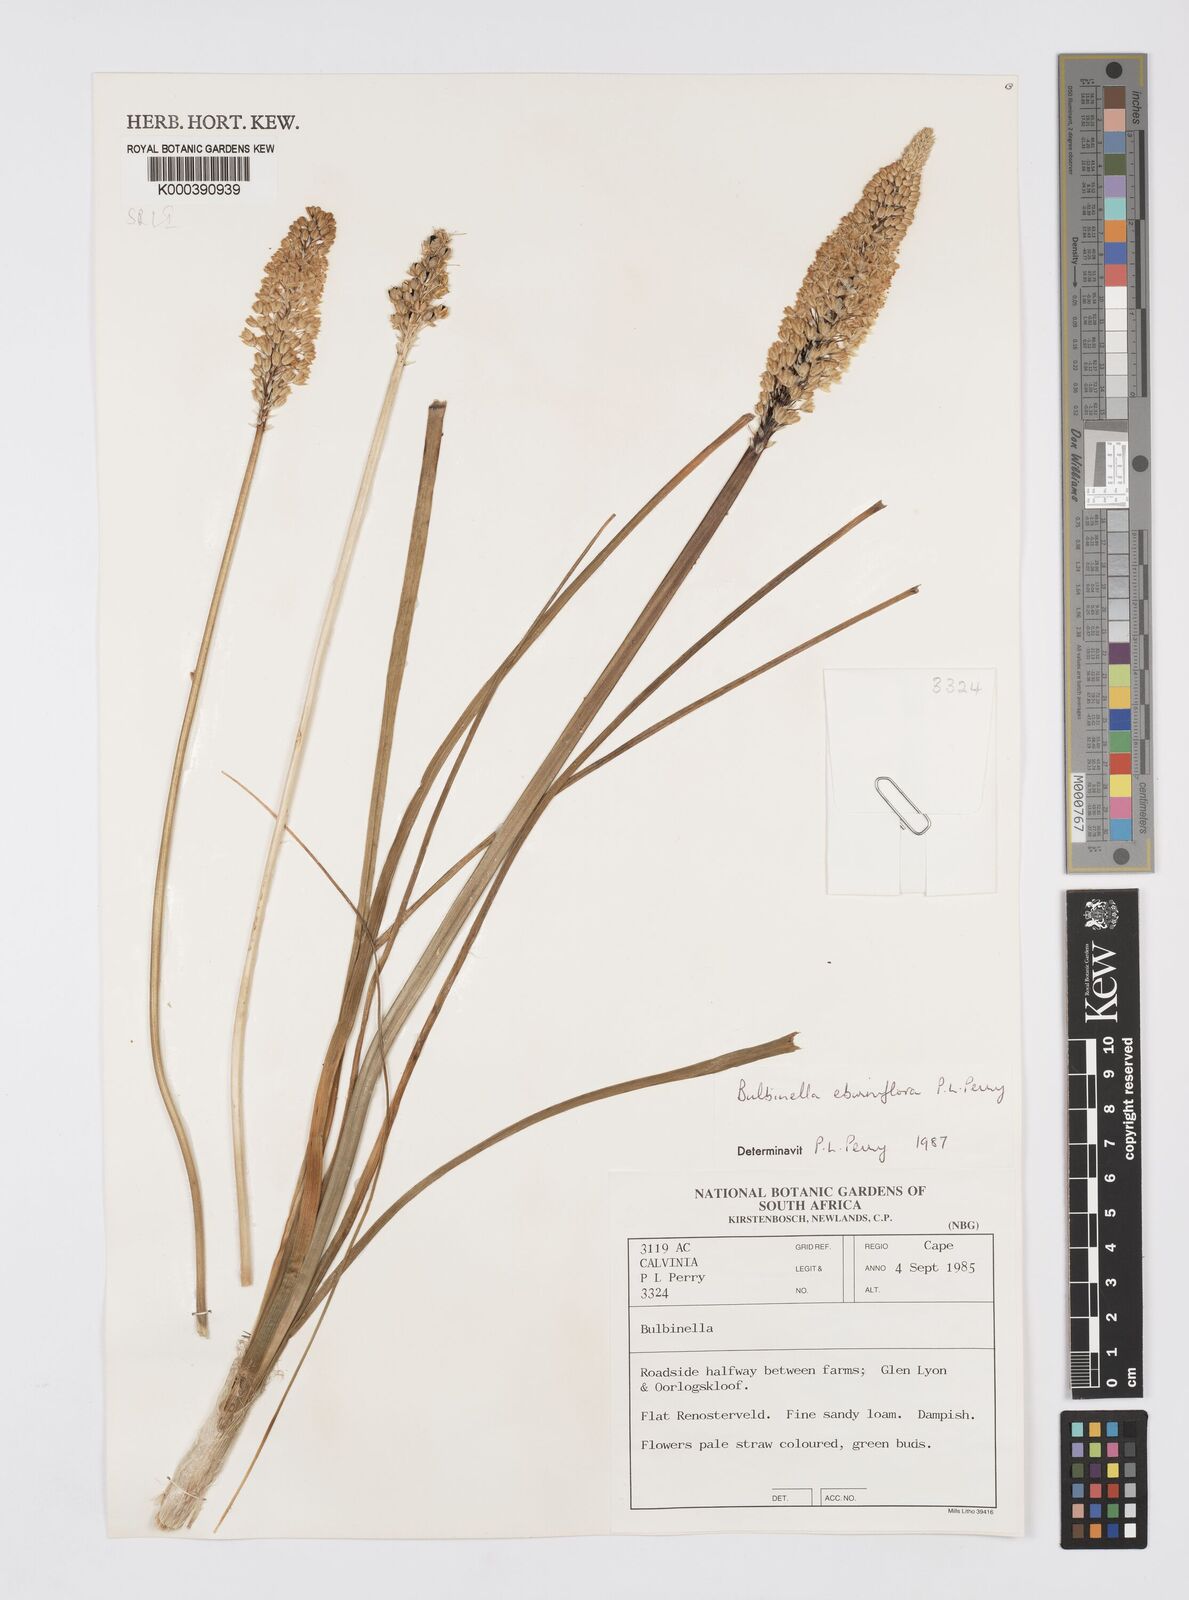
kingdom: Plantae
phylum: Tracheophyta
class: Liliopsida
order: Asparagales
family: Asphodelaceae
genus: Bulbinella
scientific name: Bulbinella eburniflora
